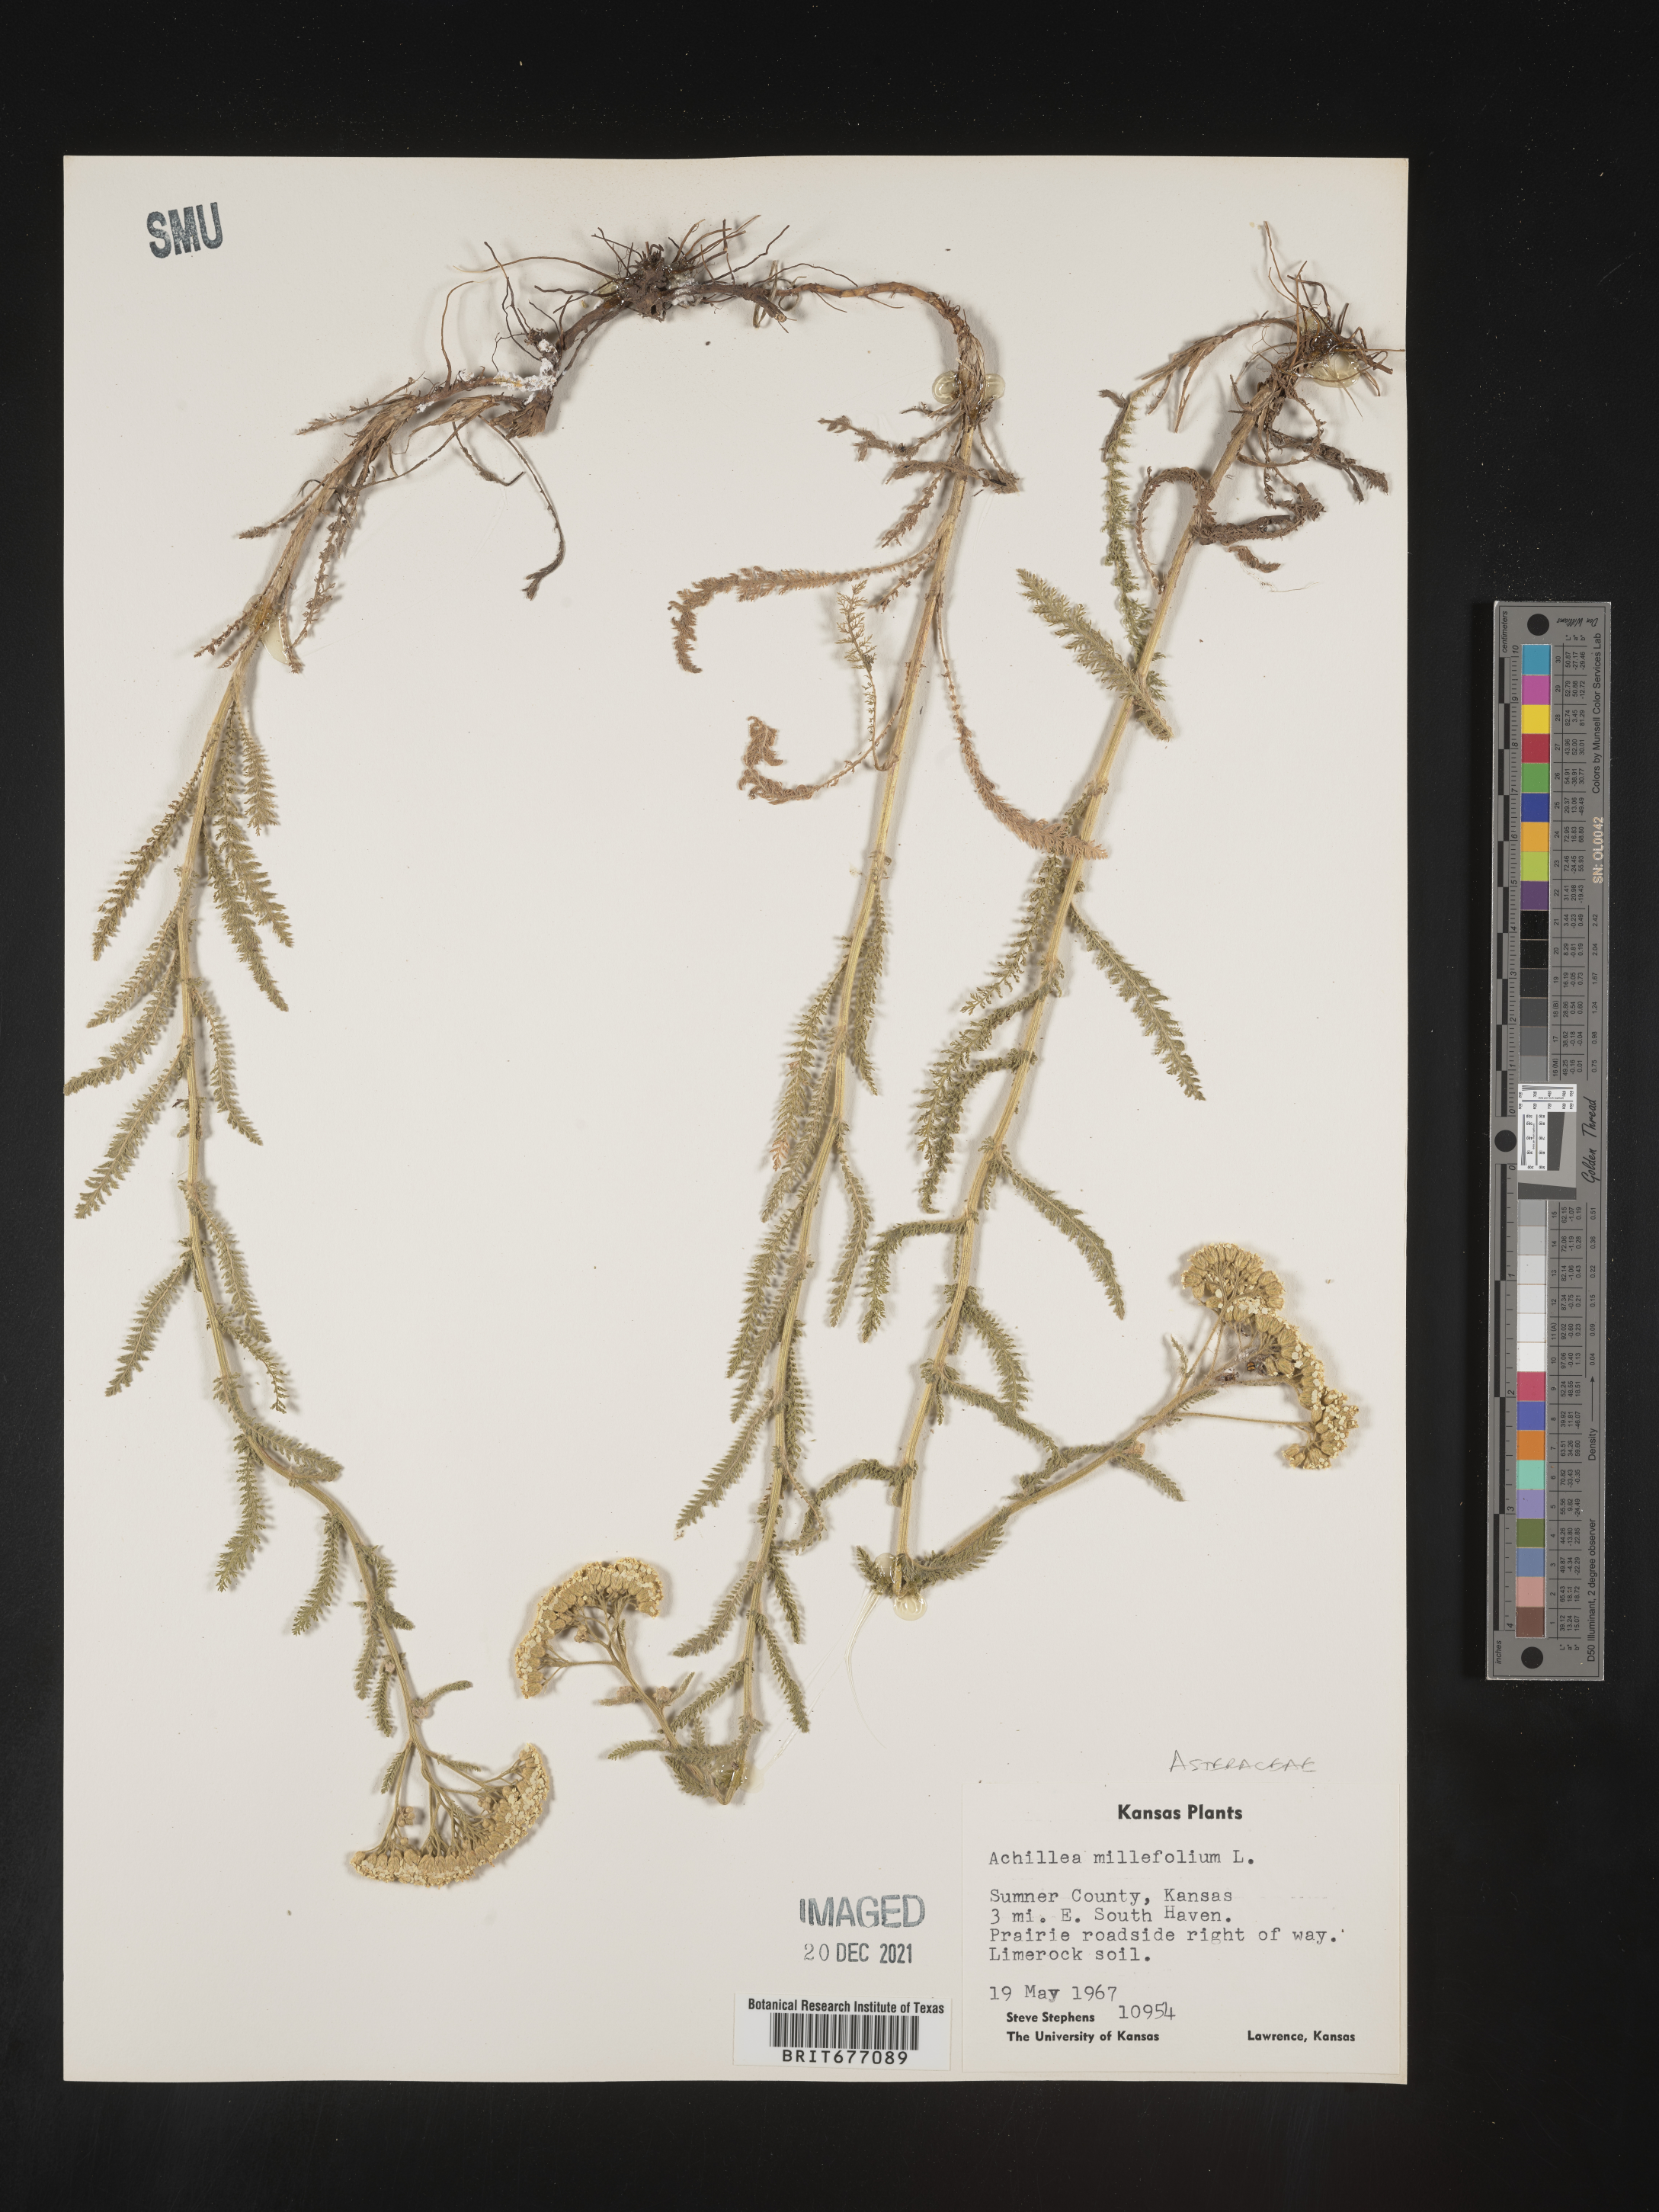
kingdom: Plantae
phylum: Tracheophyta
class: Magnoliopsida
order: Asterales
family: Asteraceae
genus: Achillea
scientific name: Achillea millefolium
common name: Yarrow
